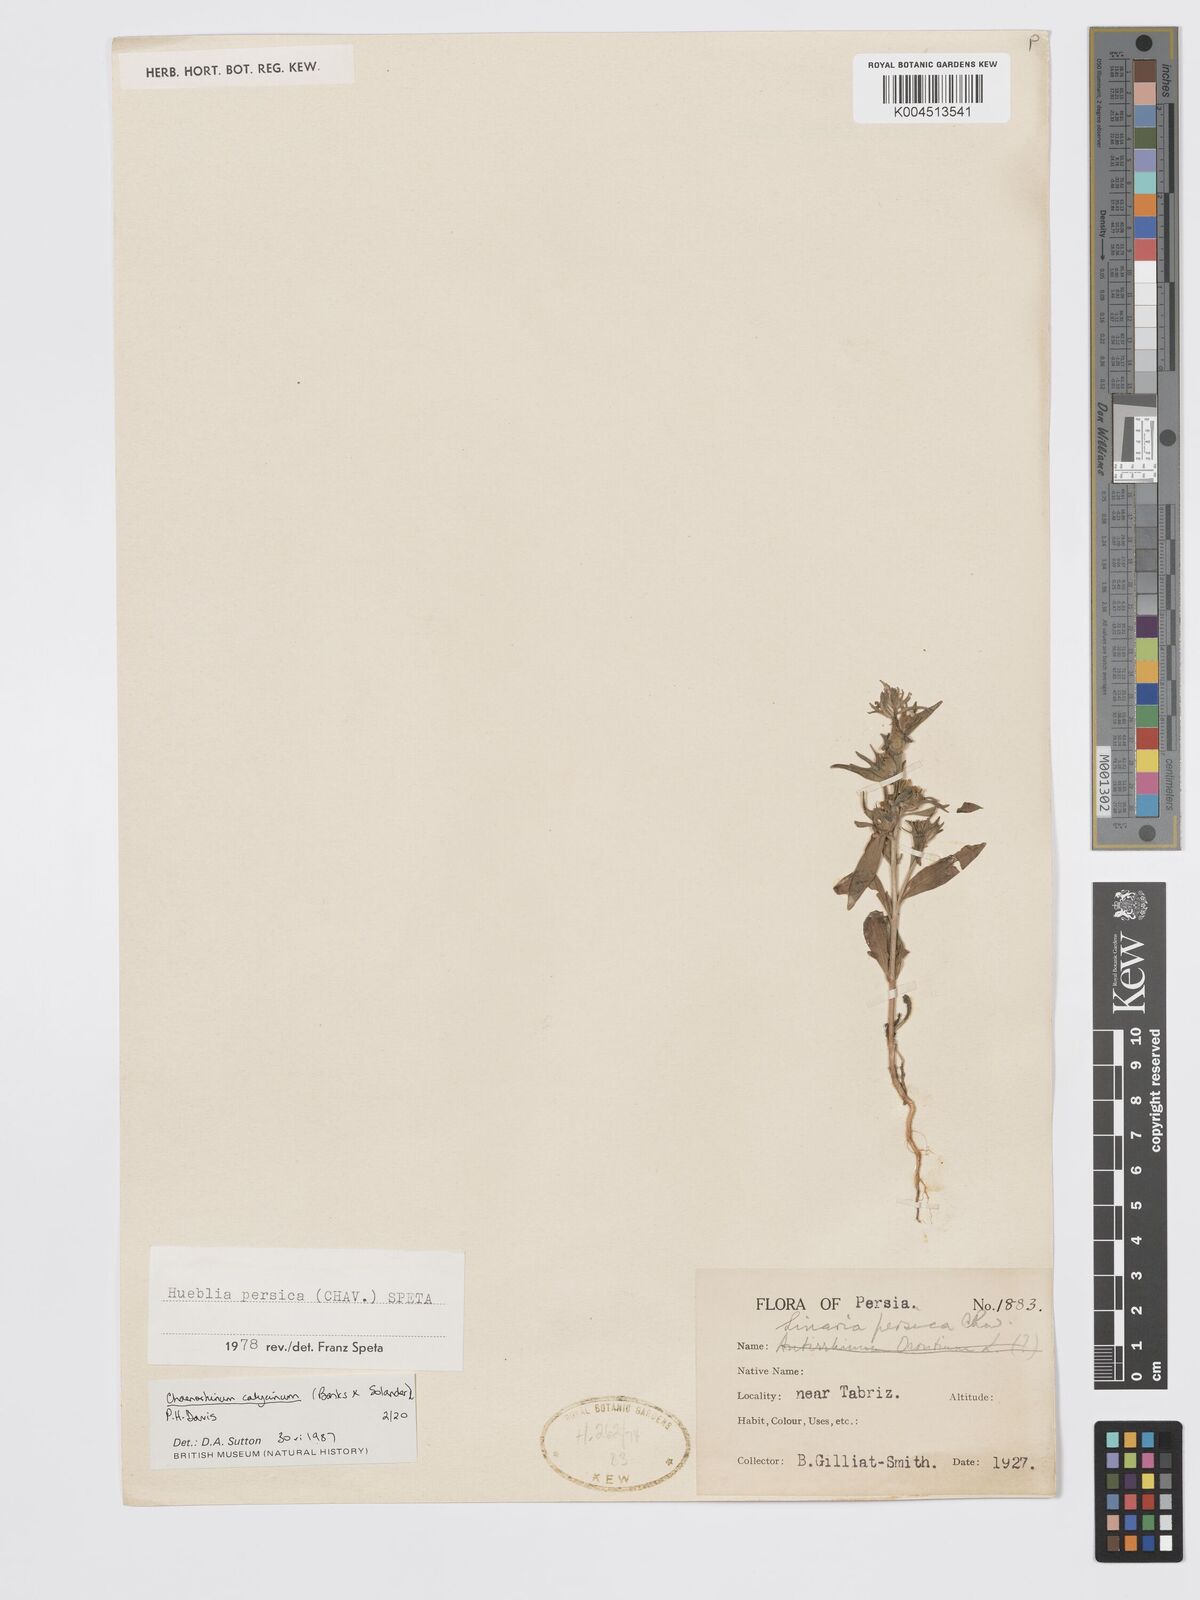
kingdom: Plantae
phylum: Tracheophyta
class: Magnoliopsida
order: Lamiales
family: Plantaginaceae
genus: Chaenorhinum
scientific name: Chaenorhinum calycinum
